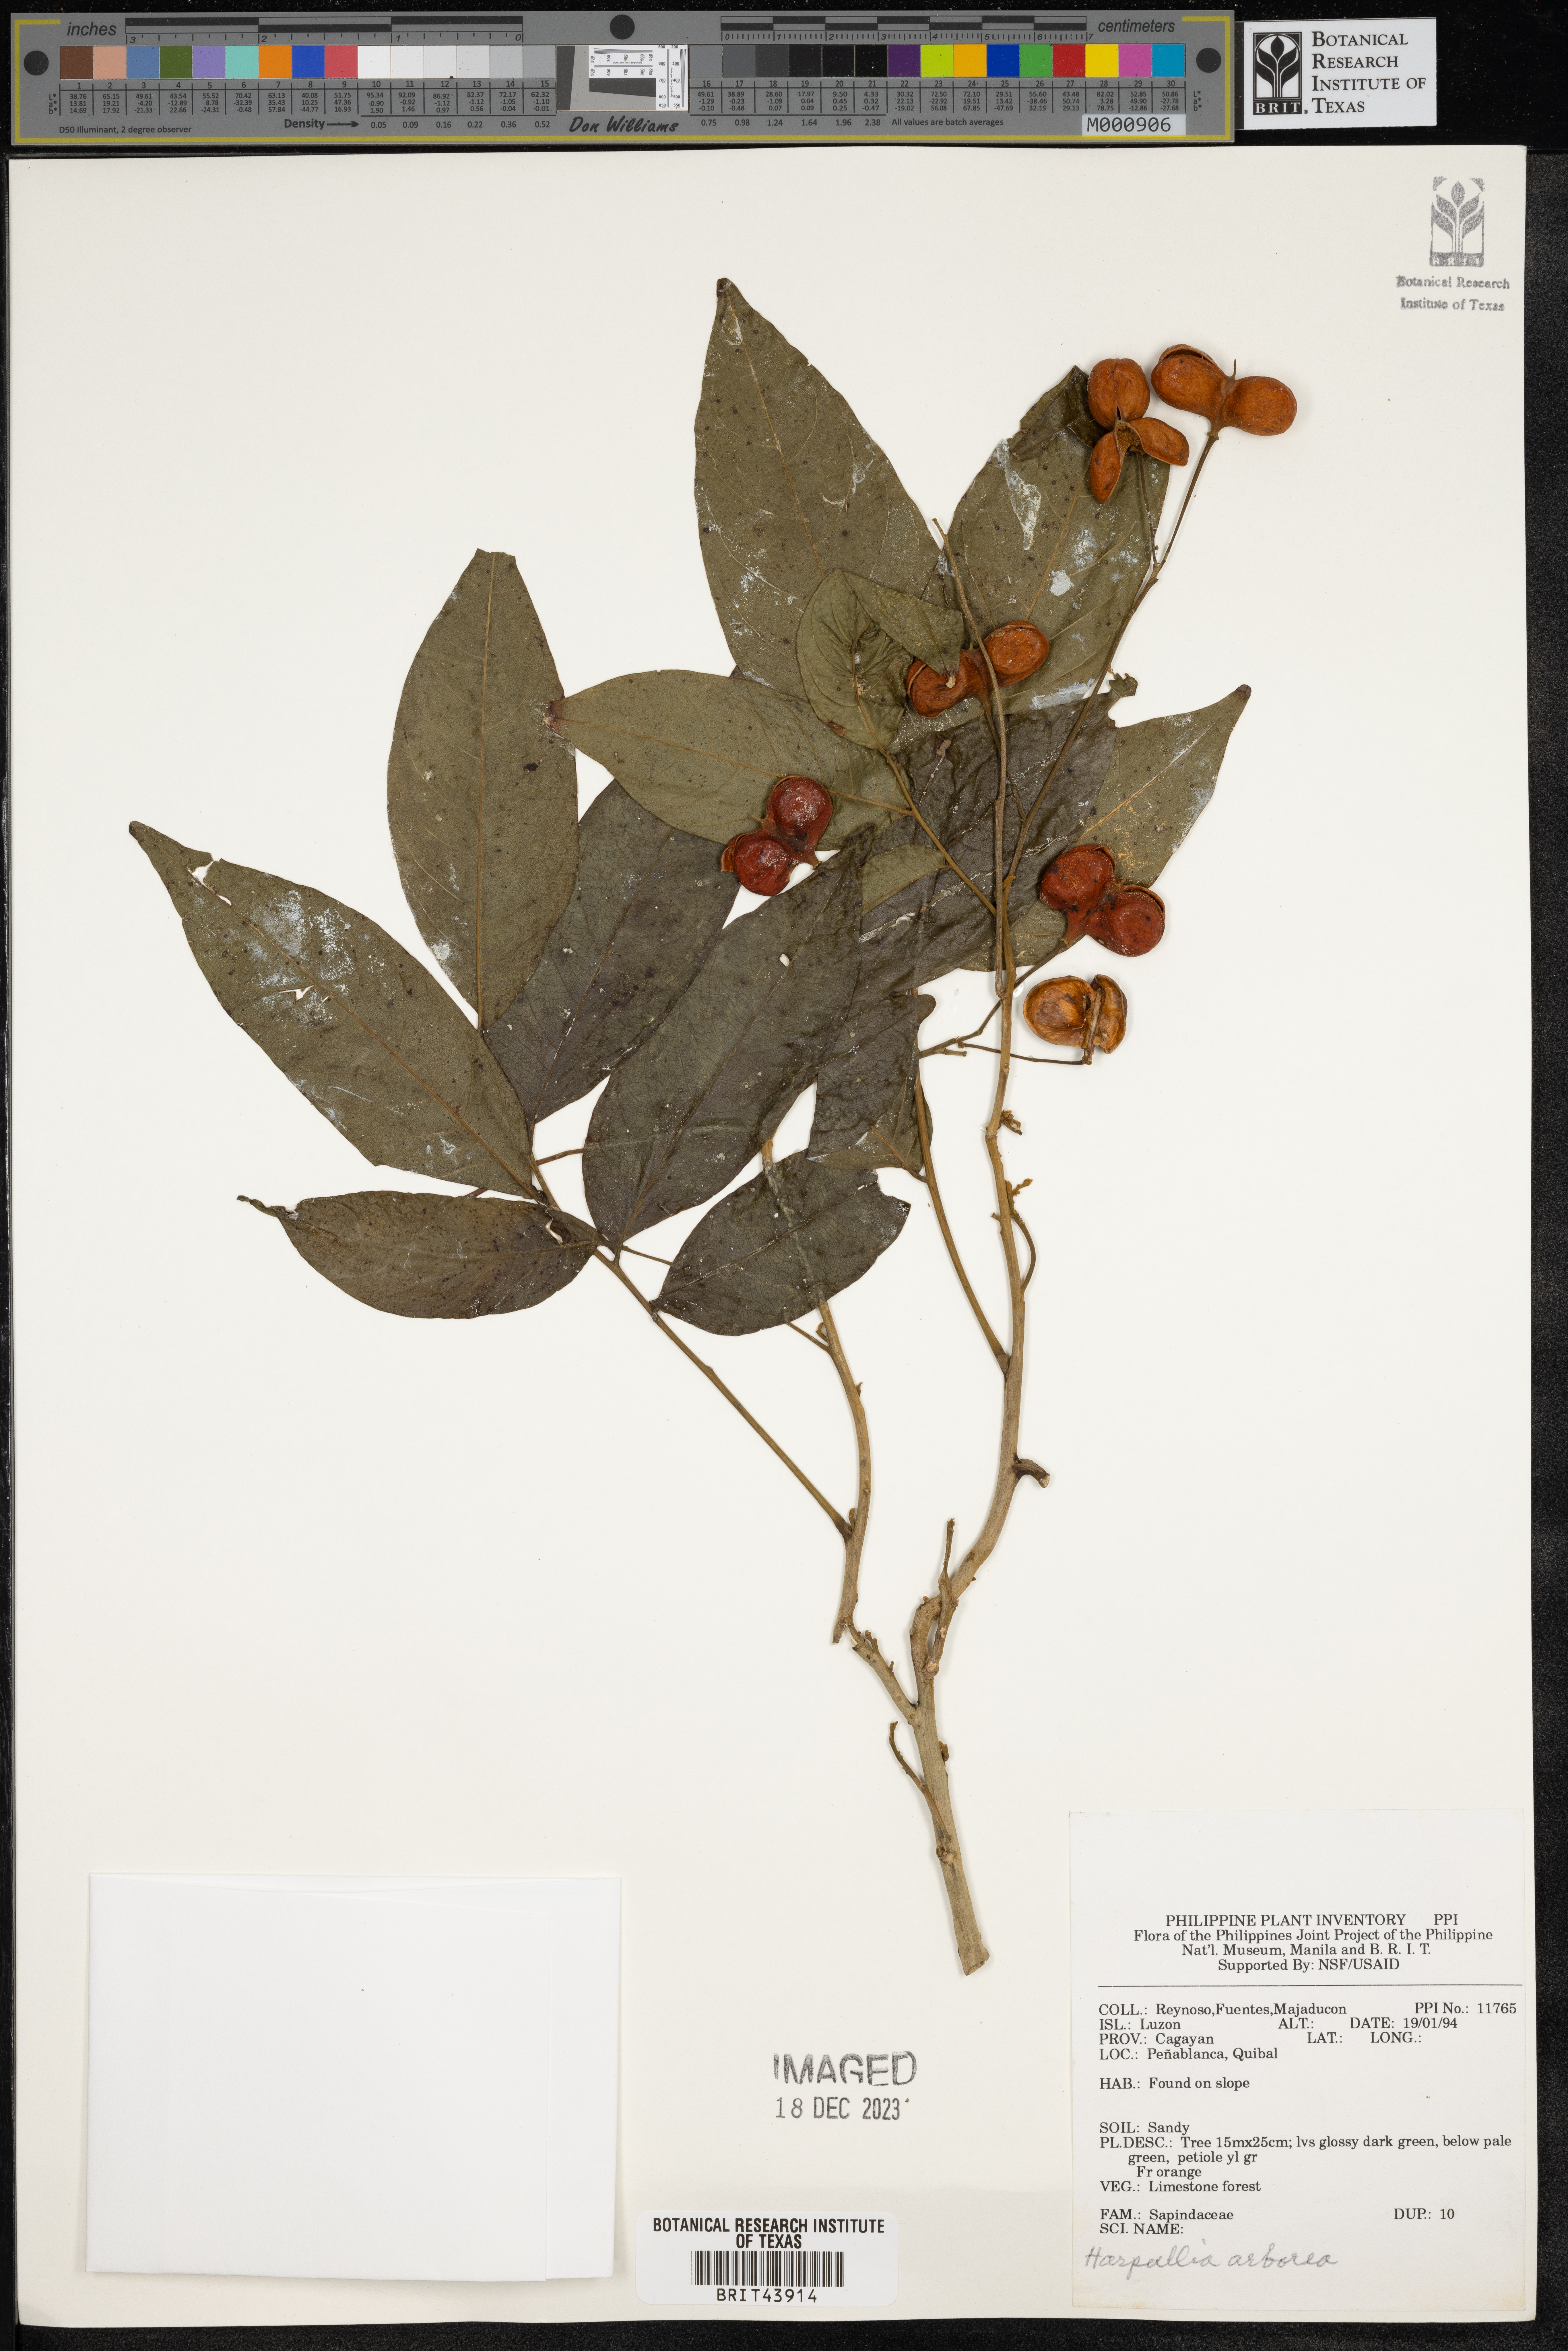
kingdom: Plantae
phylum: Tracheophyta
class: Magnoliopsida
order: Sapindales
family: Sapindaceae
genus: Harpullia
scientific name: Harpullia arborea
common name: Tulip-wood tree
